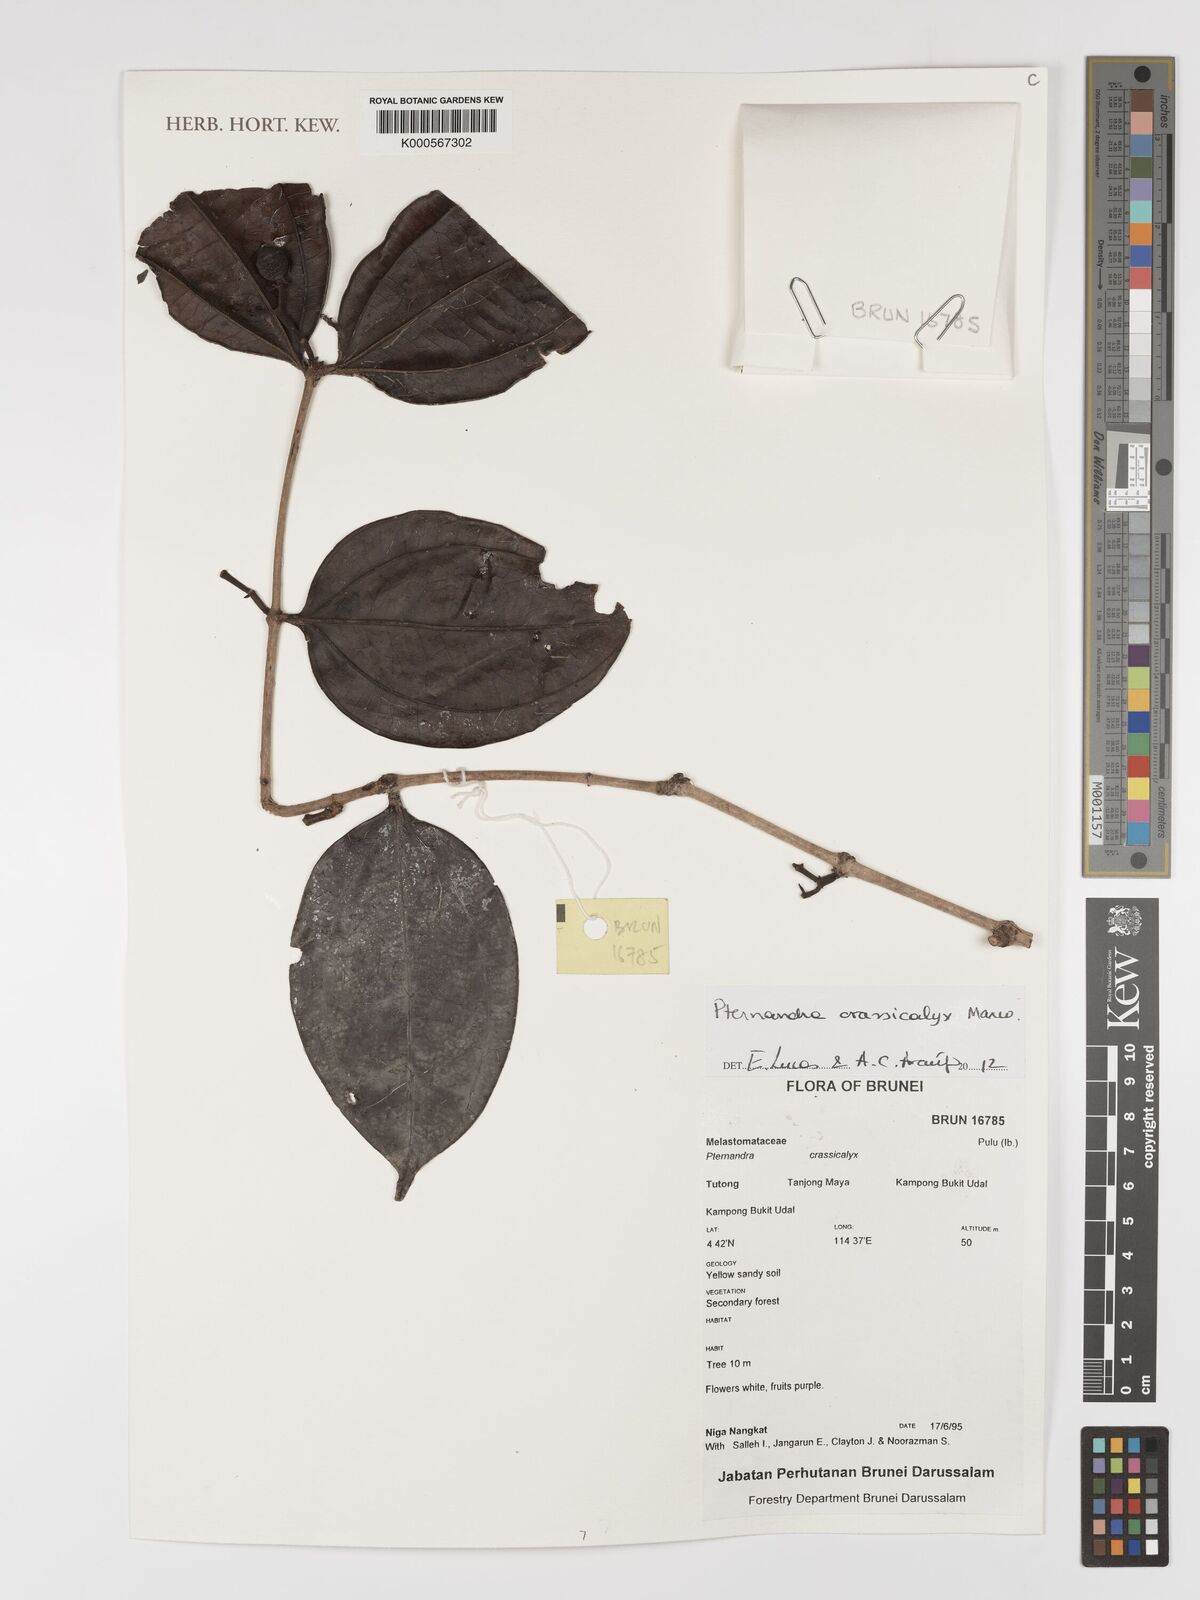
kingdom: Plantae
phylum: Tracheophyta
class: Magnoliopsida
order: Myrtales
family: Melastomataceae
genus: Pternandra
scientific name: Pternandra crassicalyx
